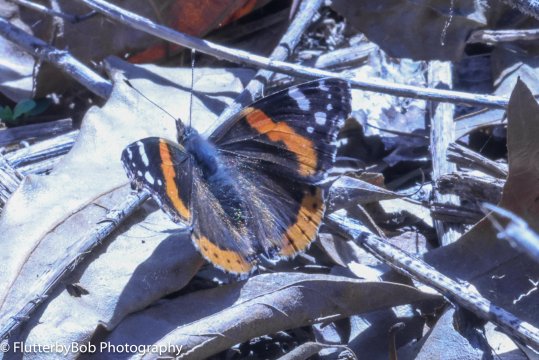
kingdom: Animalia
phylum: Arthropoda
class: Insecta
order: Lepidoptera
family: Nymphalidae
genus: Vanessa
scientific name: Vanessa atalanta
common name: Red Admiral
